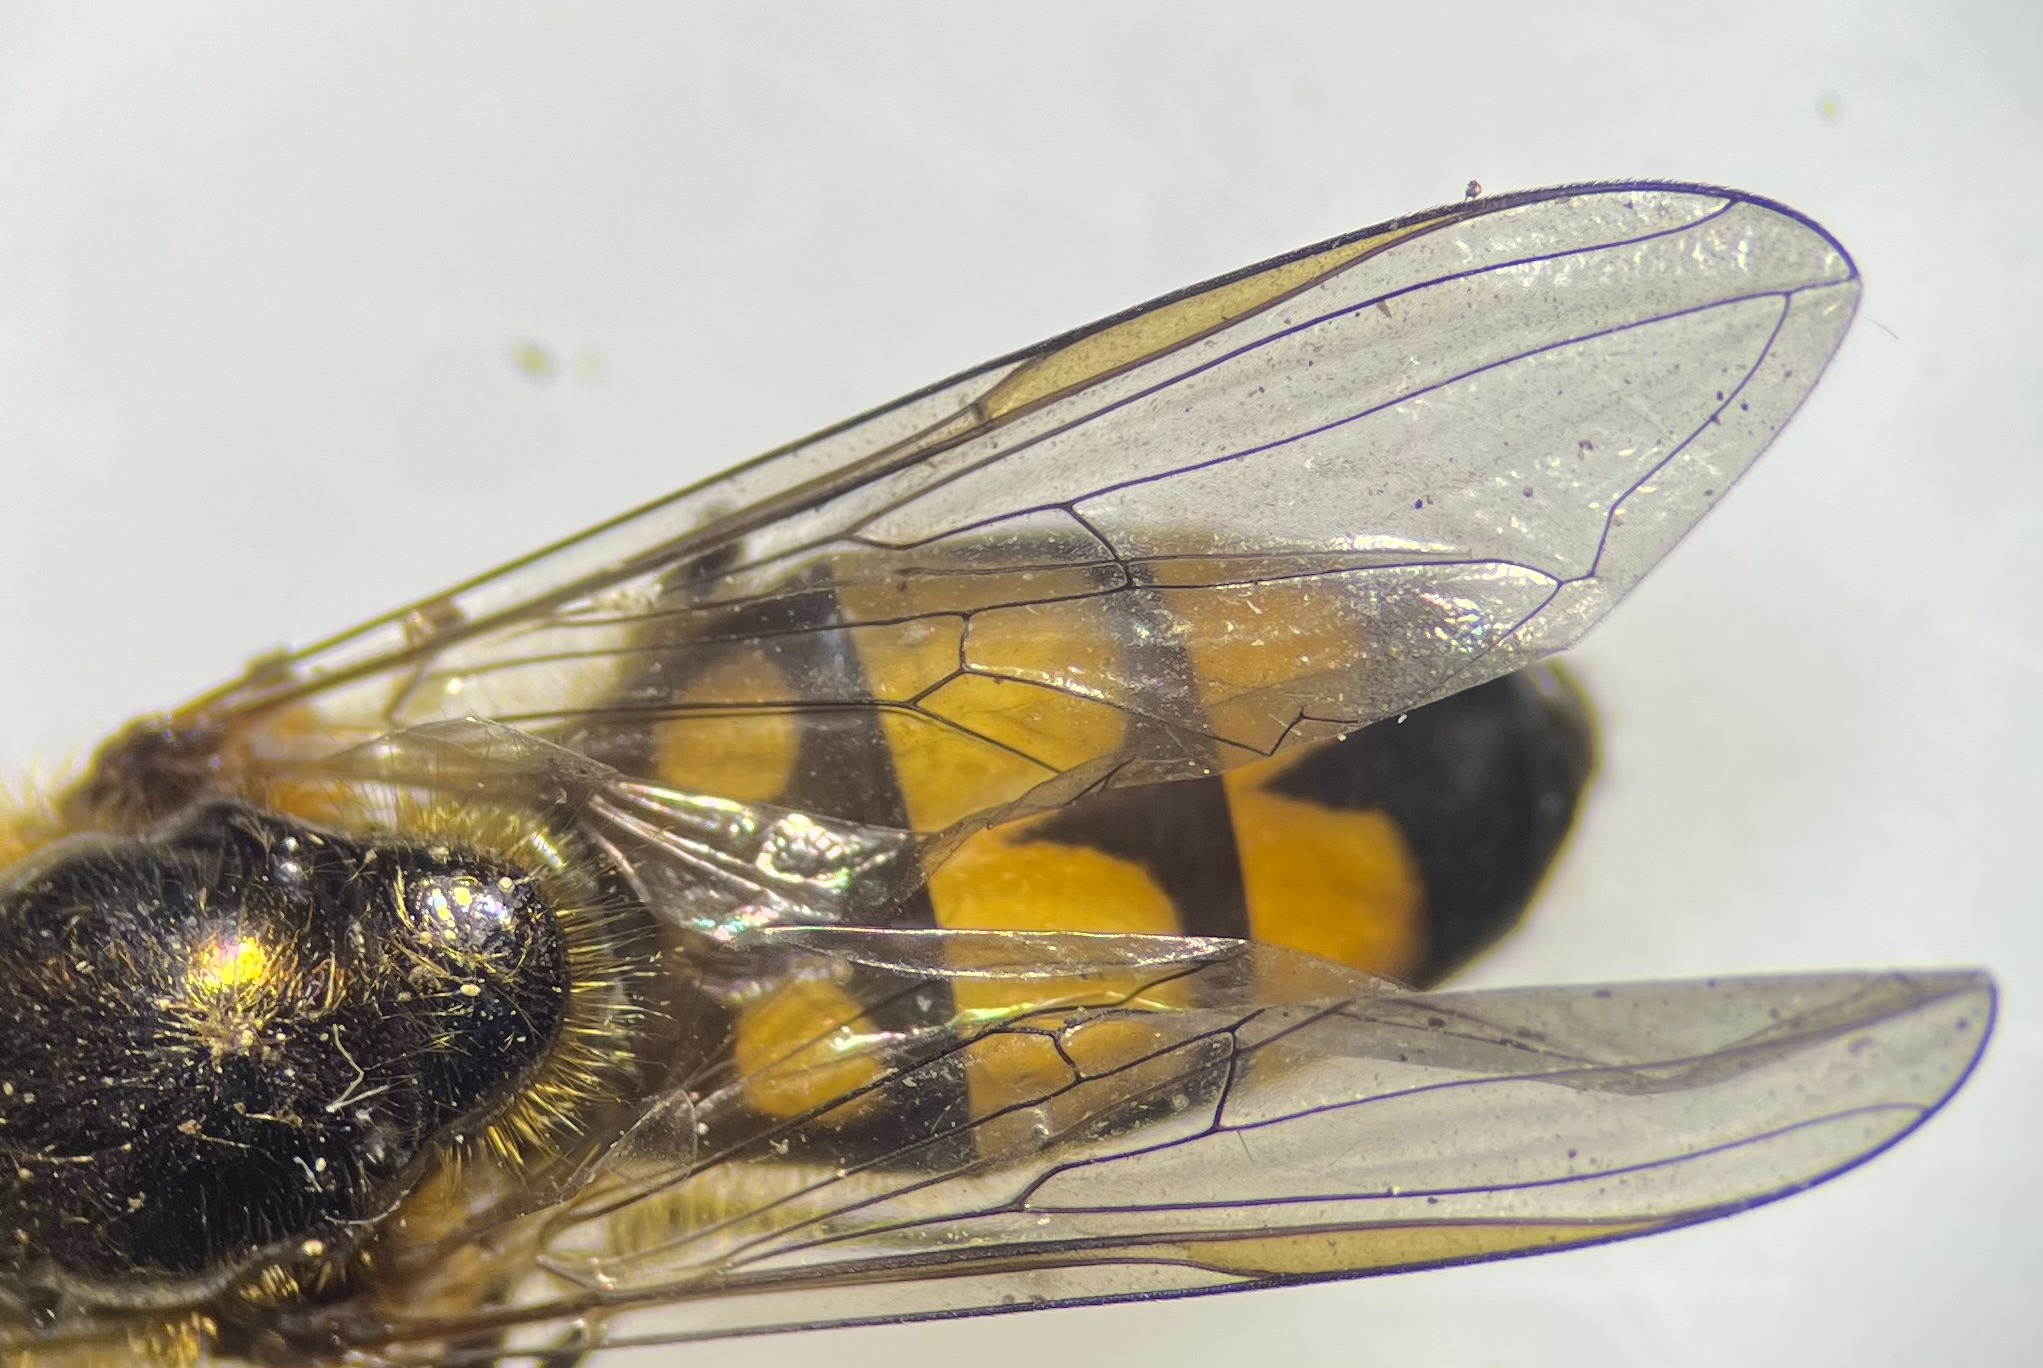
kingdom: Animalia
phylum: Arthropoda
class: Insecta
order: Diptera
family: Syrphidae
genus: Xanthandrus
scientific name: Xanthandrus comtus
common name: Gulhannet svirreflue
